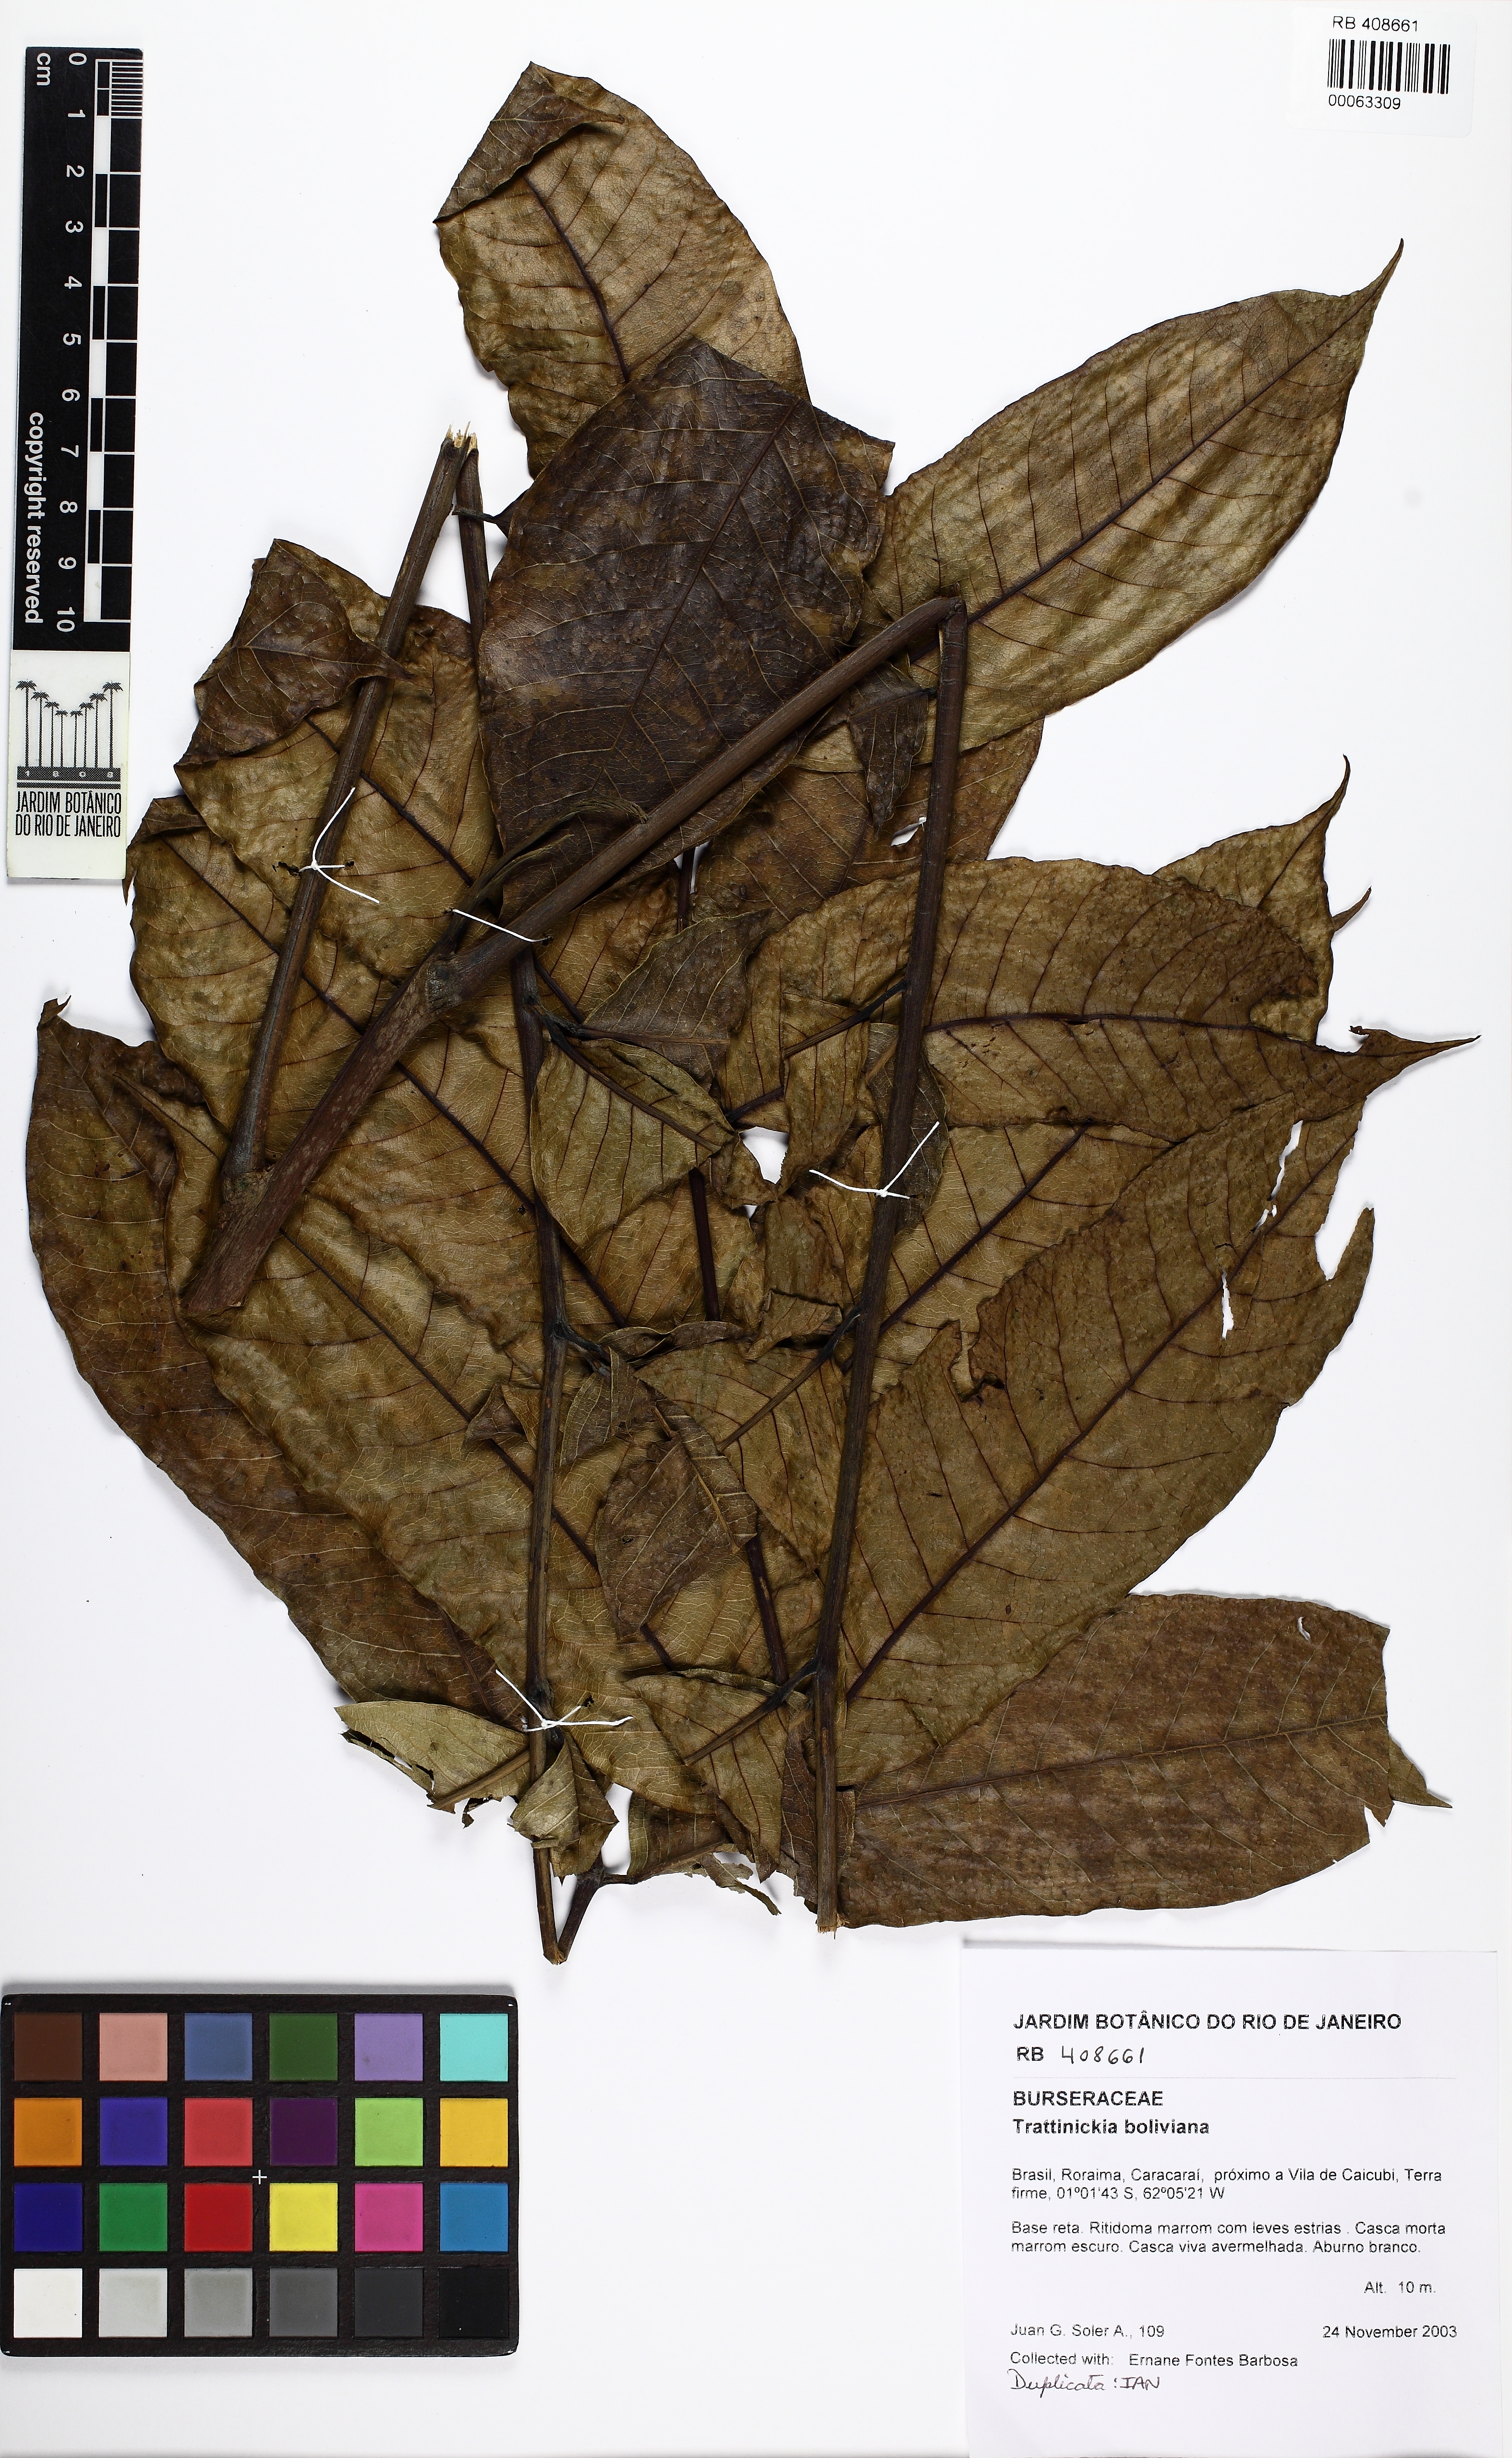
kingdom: Plantae
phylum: Tracheophyta
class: Magnoliopsida
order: Sapindales
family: Burseraceae
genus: Trattinnickia
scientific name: Trattinnickia boliviana
